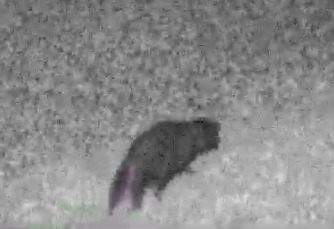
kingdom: Animalia
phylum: Chordata
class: Mammalia
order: Carnivora
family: Canidae
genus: Nyctereutes
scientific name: Nyctereutes procyonoides
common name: Mårhund
